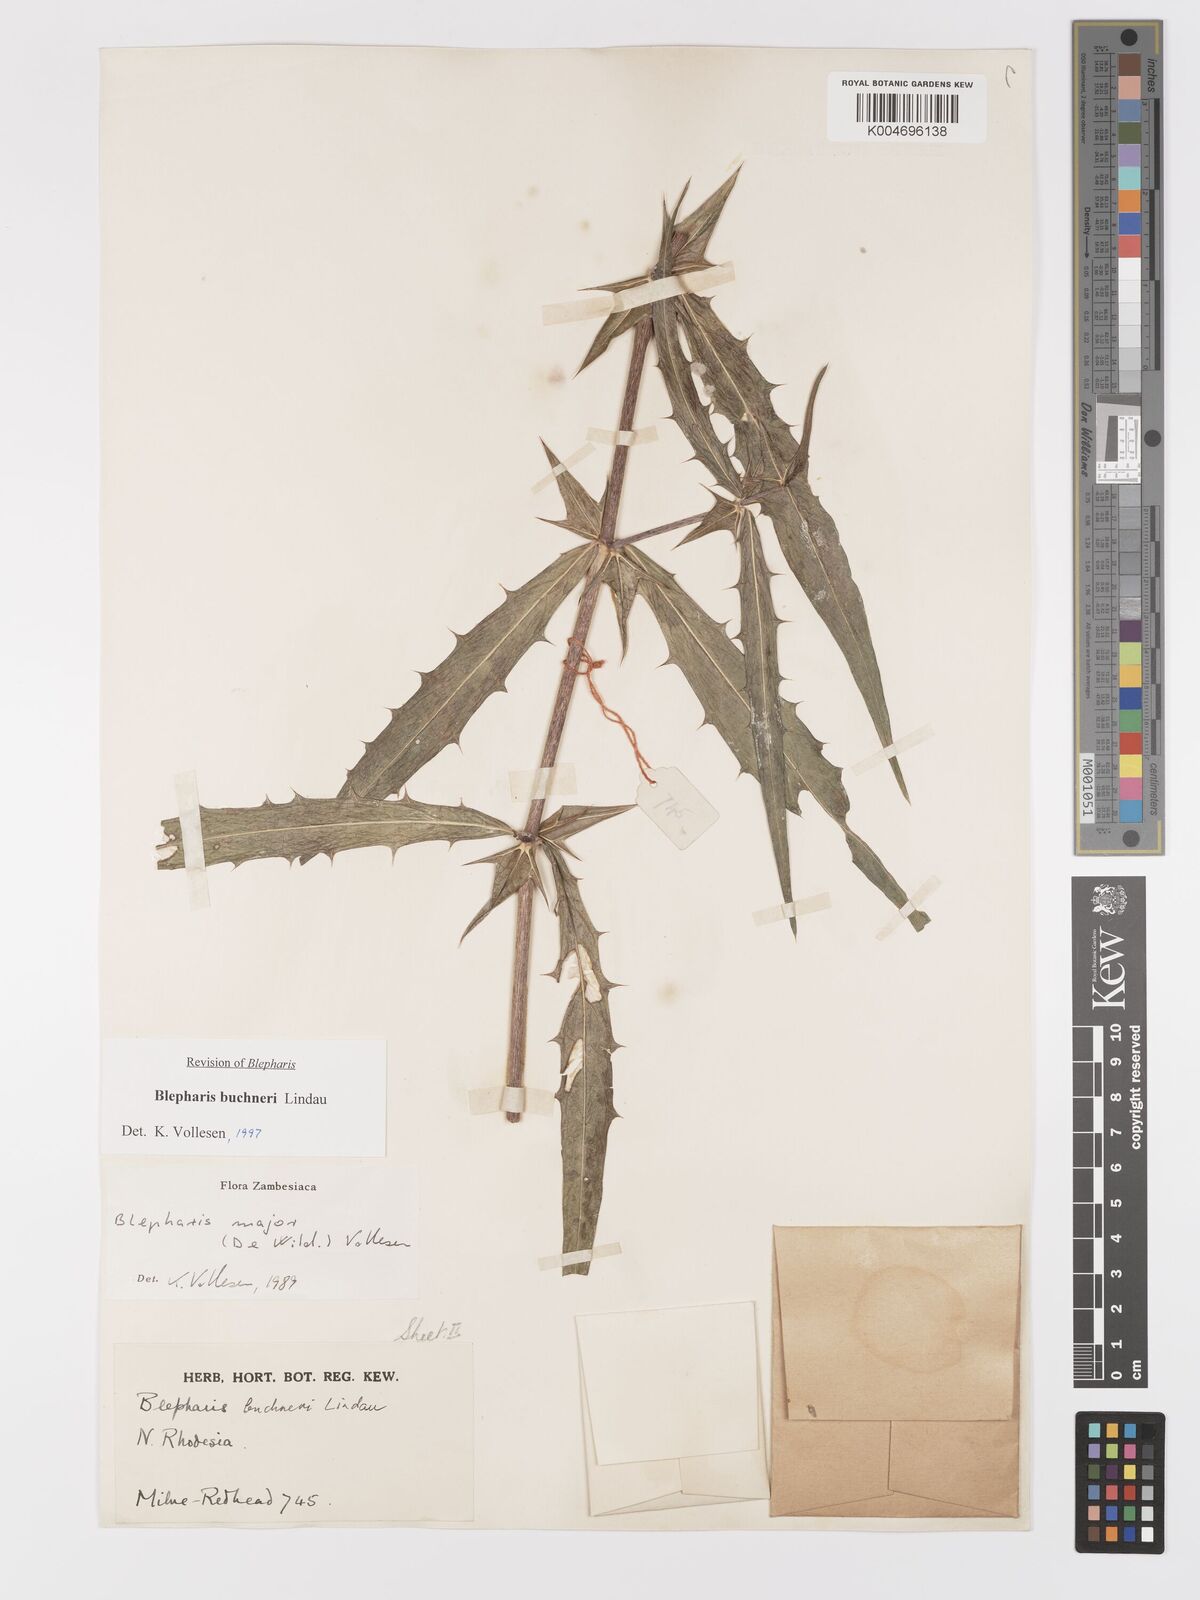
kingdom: Plantae
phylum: Tracheophyta
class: Magnoliopsida
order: Lamiales
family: Acanthaceae
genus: Blepharis
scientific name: Blepharis buchneri
